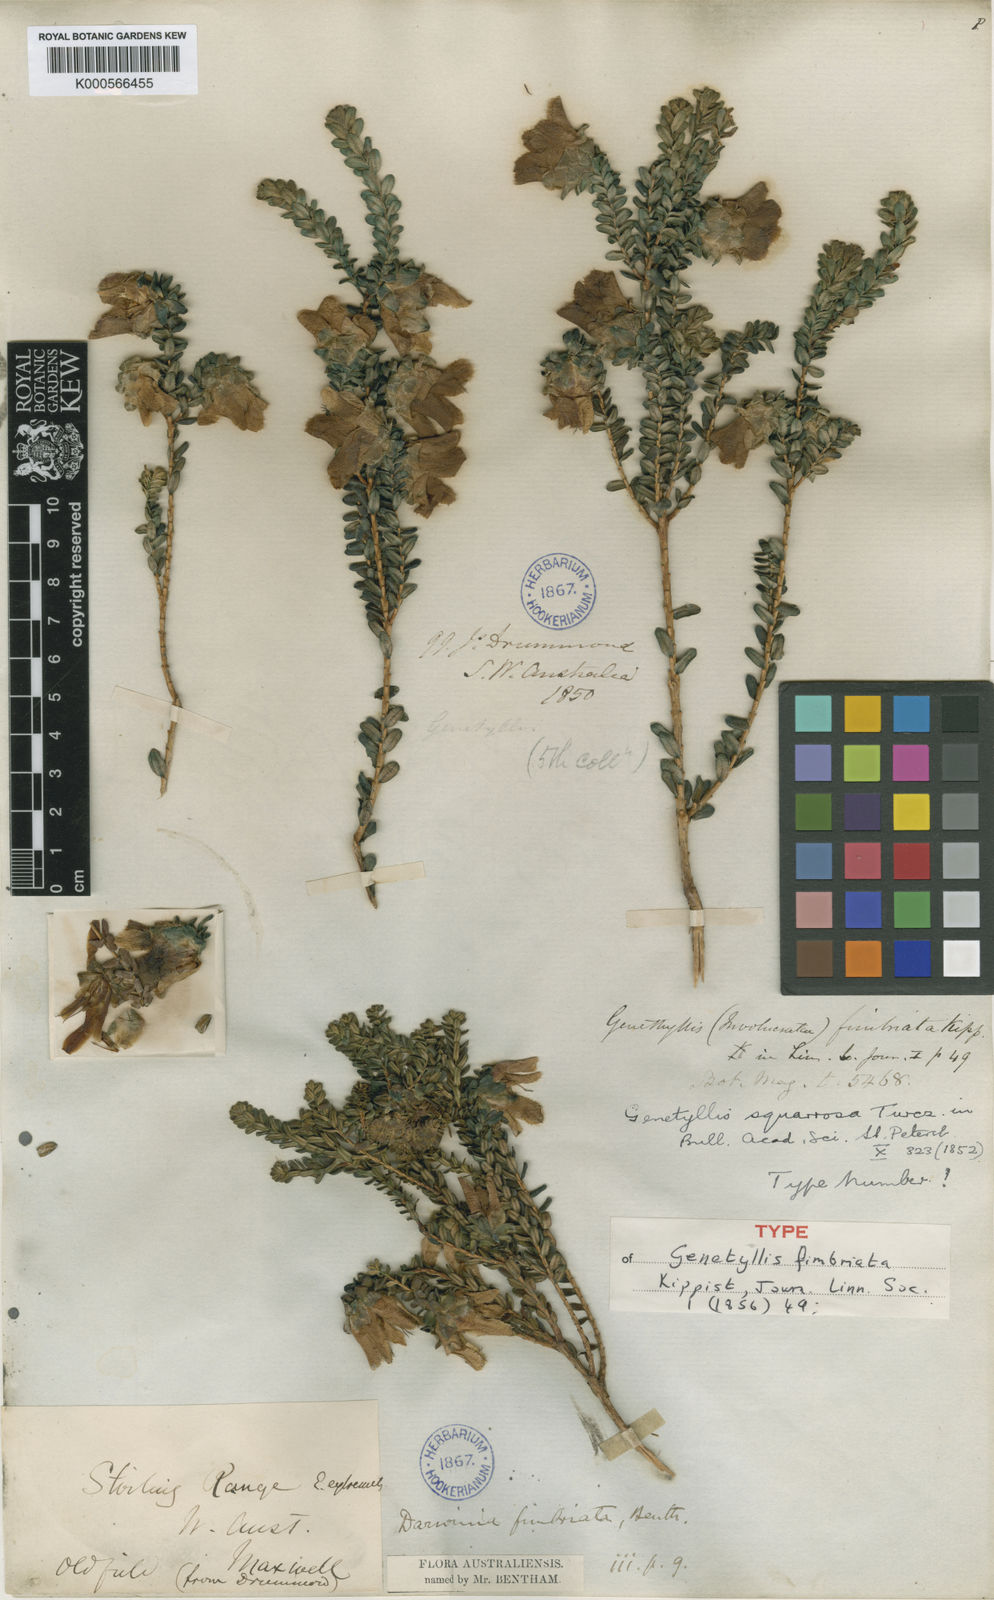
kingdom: Plantae
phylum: Tracheophyta
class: Magnoliopsida
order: Myrtales
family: Myrtaceae
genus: Darwinia
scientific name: Darwinia squarrosa
